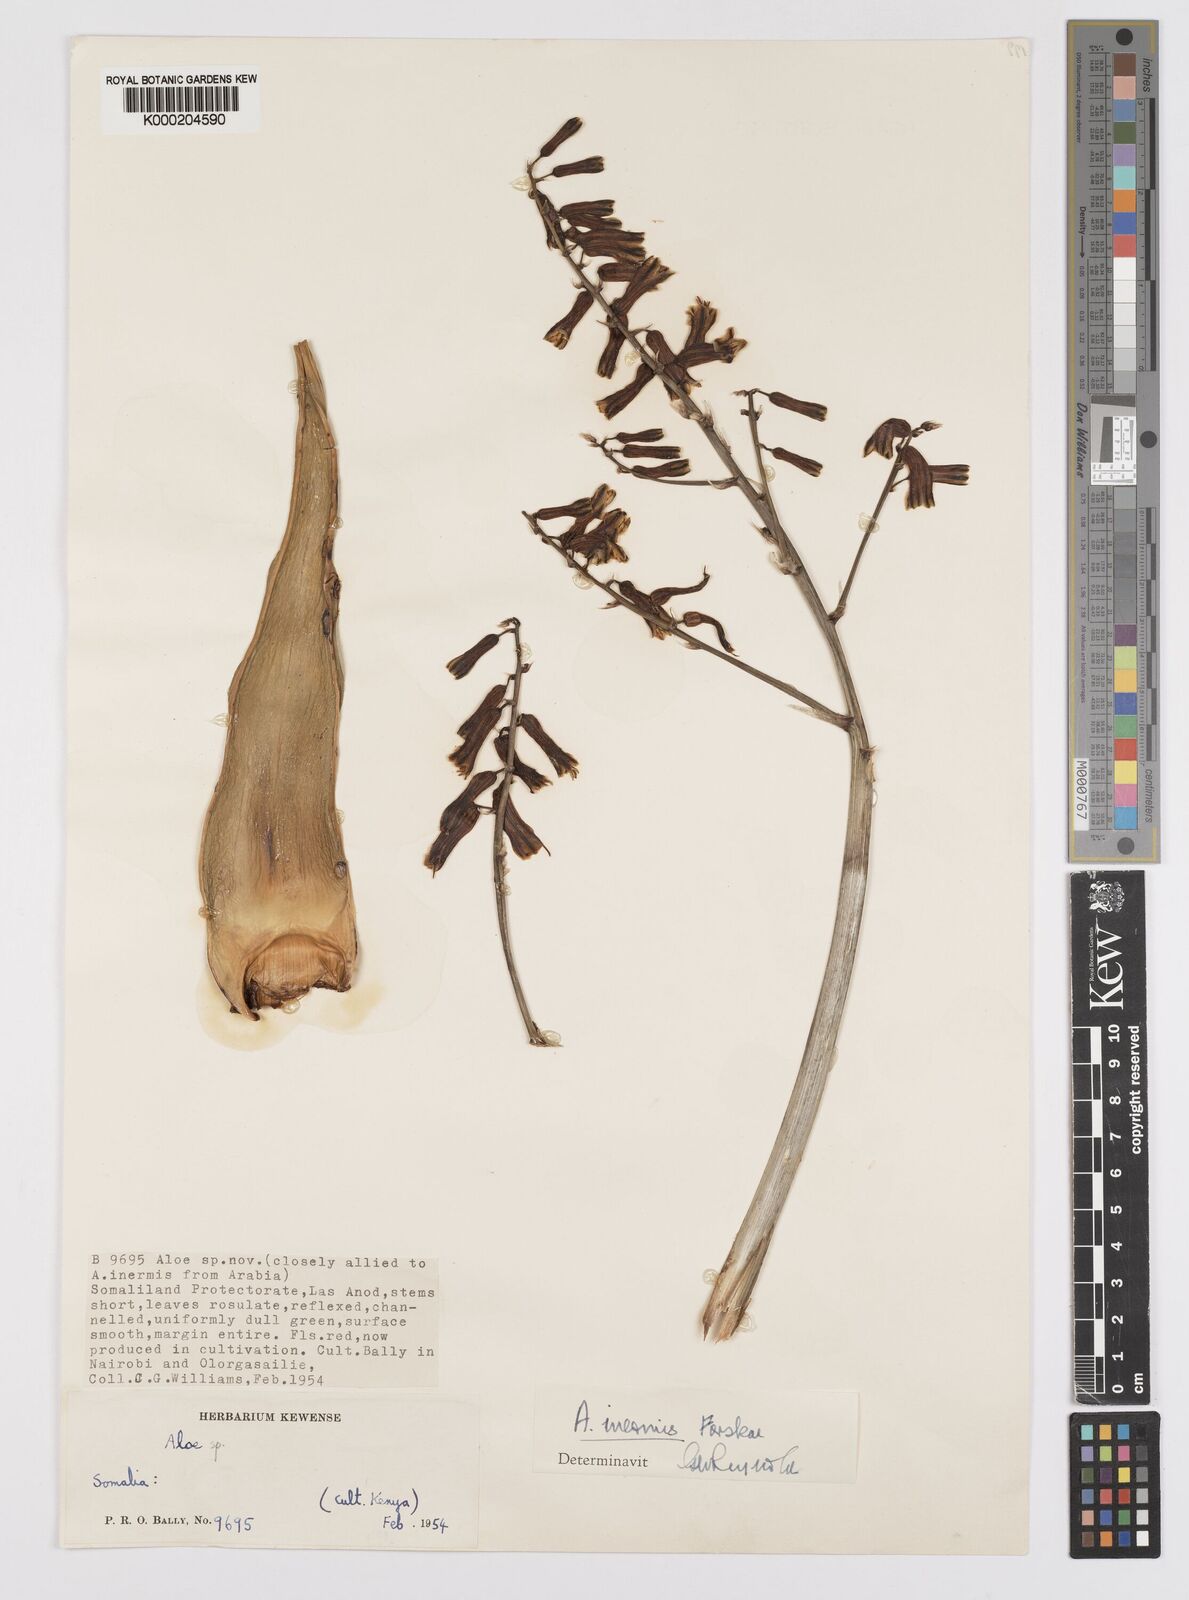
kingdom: Plantae
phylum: Tracheophyta
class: Liliopsida
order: Asparagales
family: Asphodelaceae
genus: Aloe
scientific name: Aloe luntii
